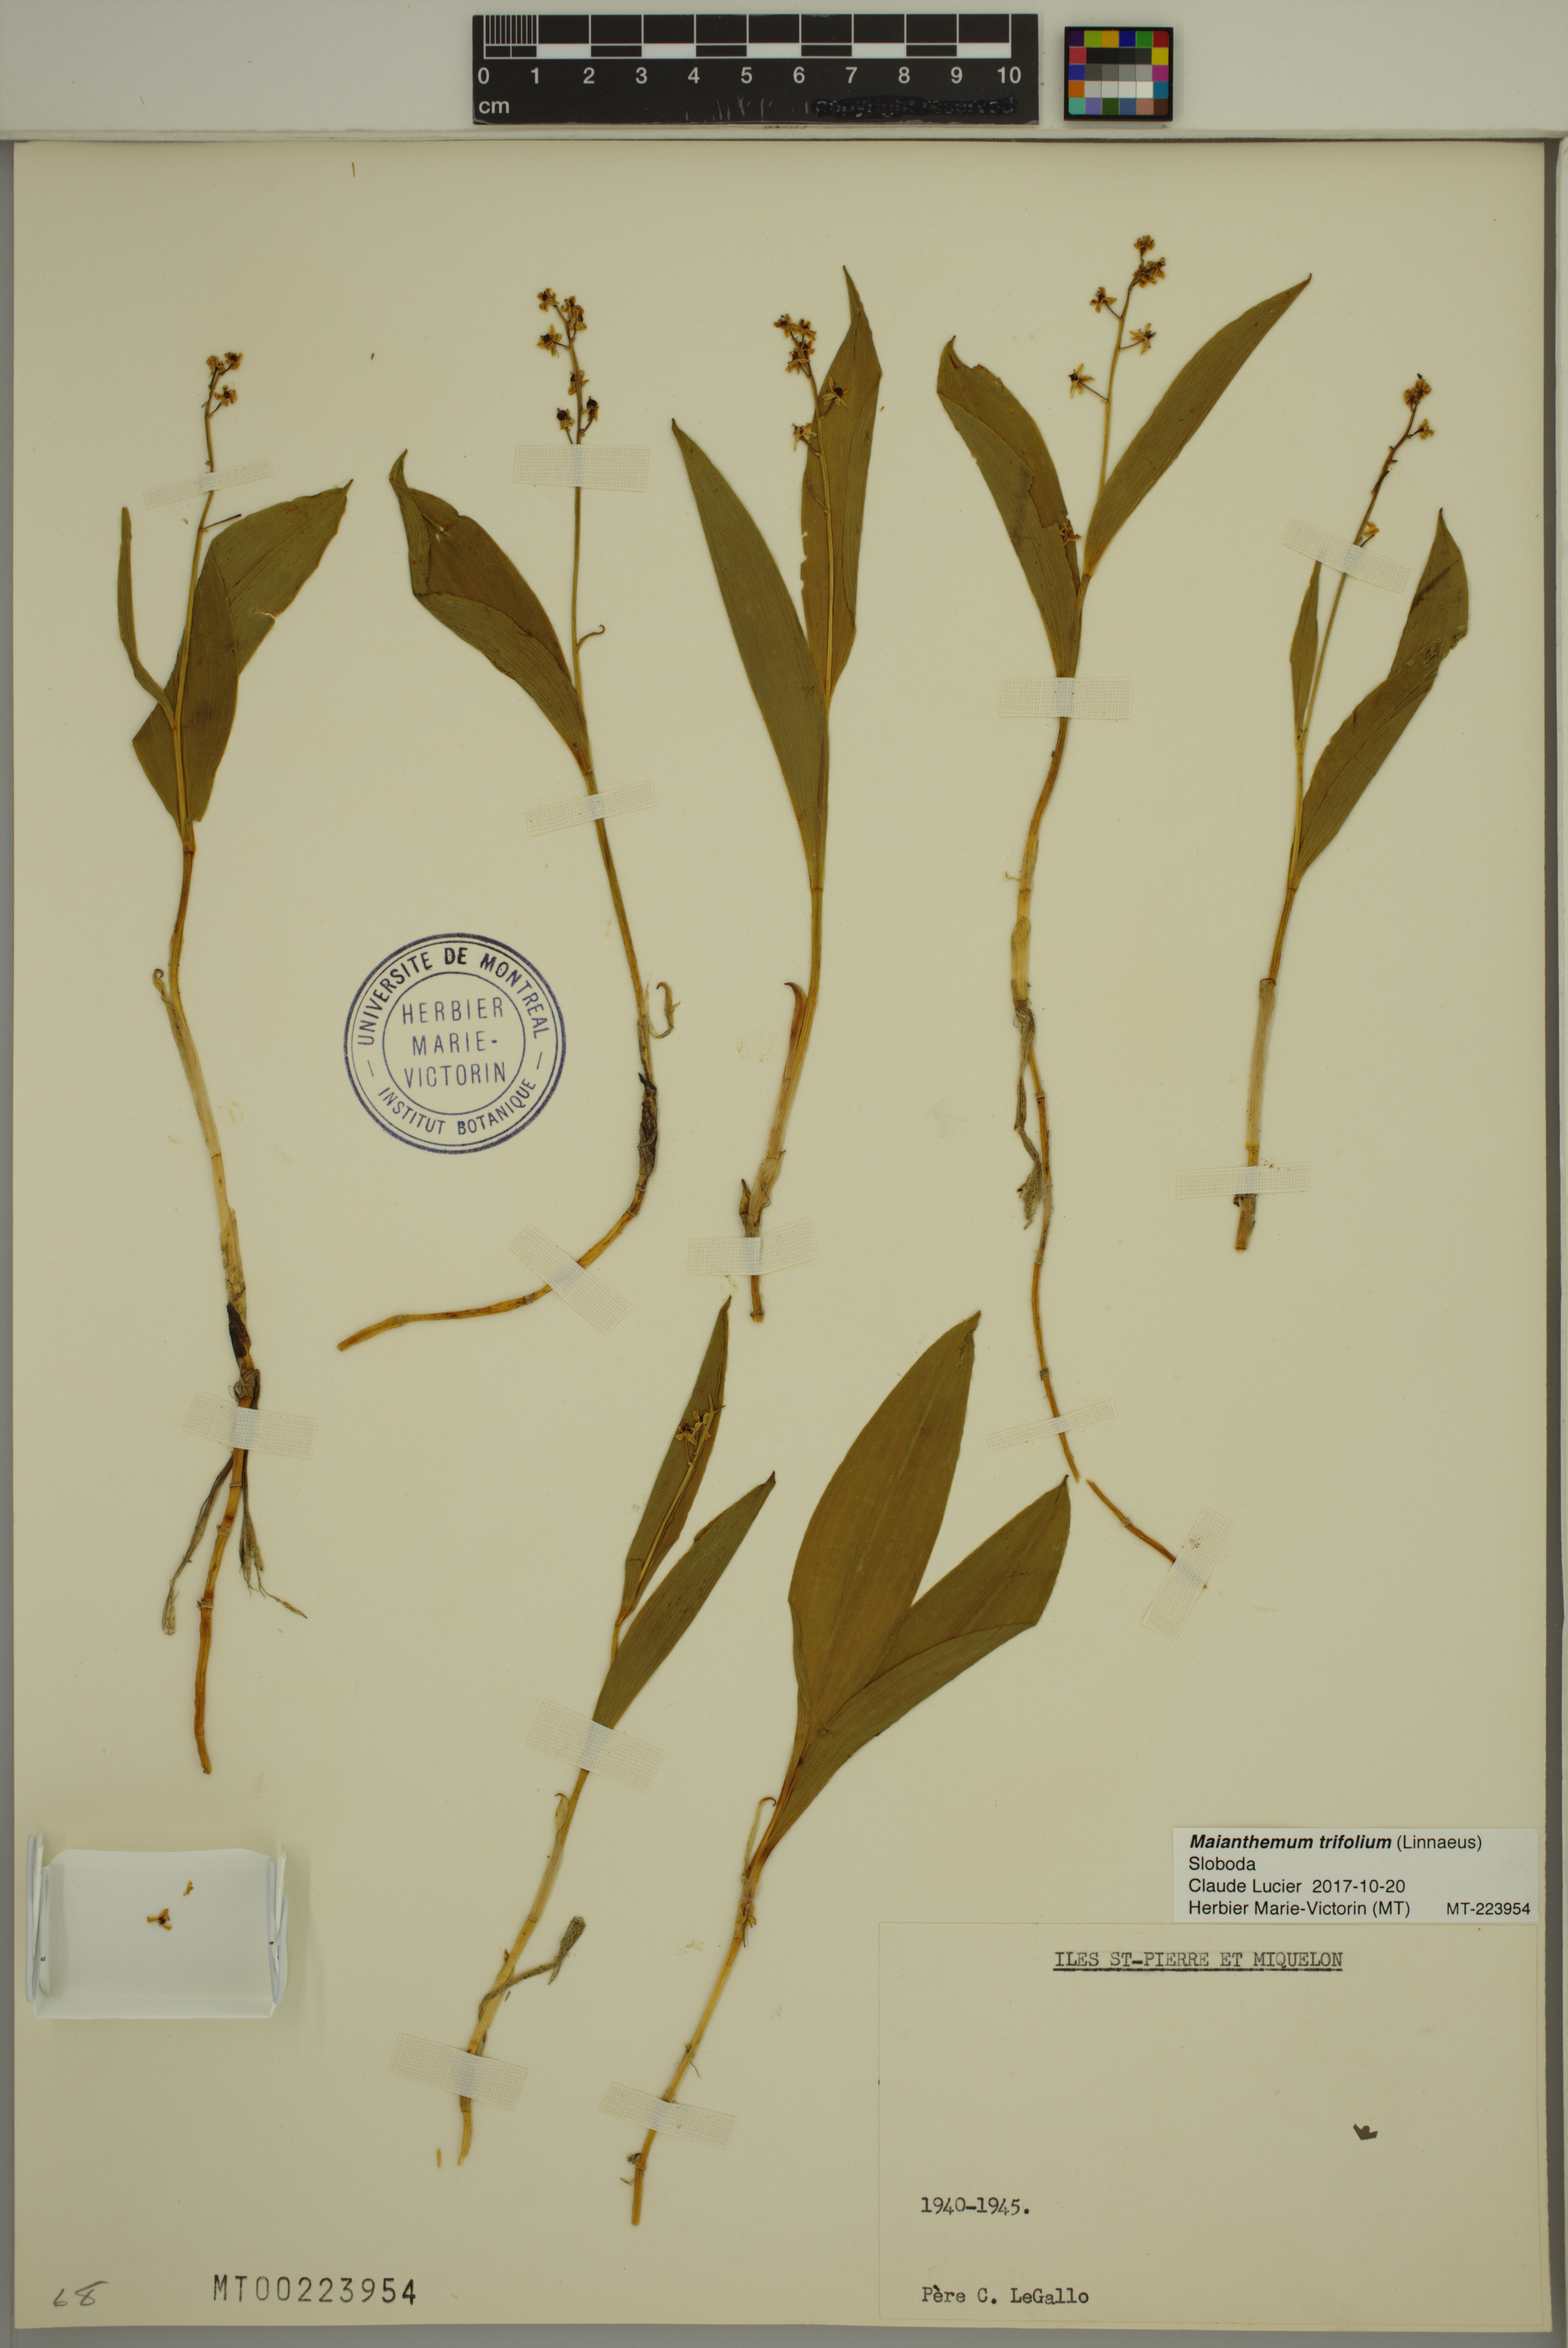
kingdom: Plantae
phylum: Tracheophyta
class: Liliopsida
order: Asparagales
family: Asparagaceae
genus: Maianthemum
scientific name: Maianthemum trifolium
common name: Swamp false solomon's seal
